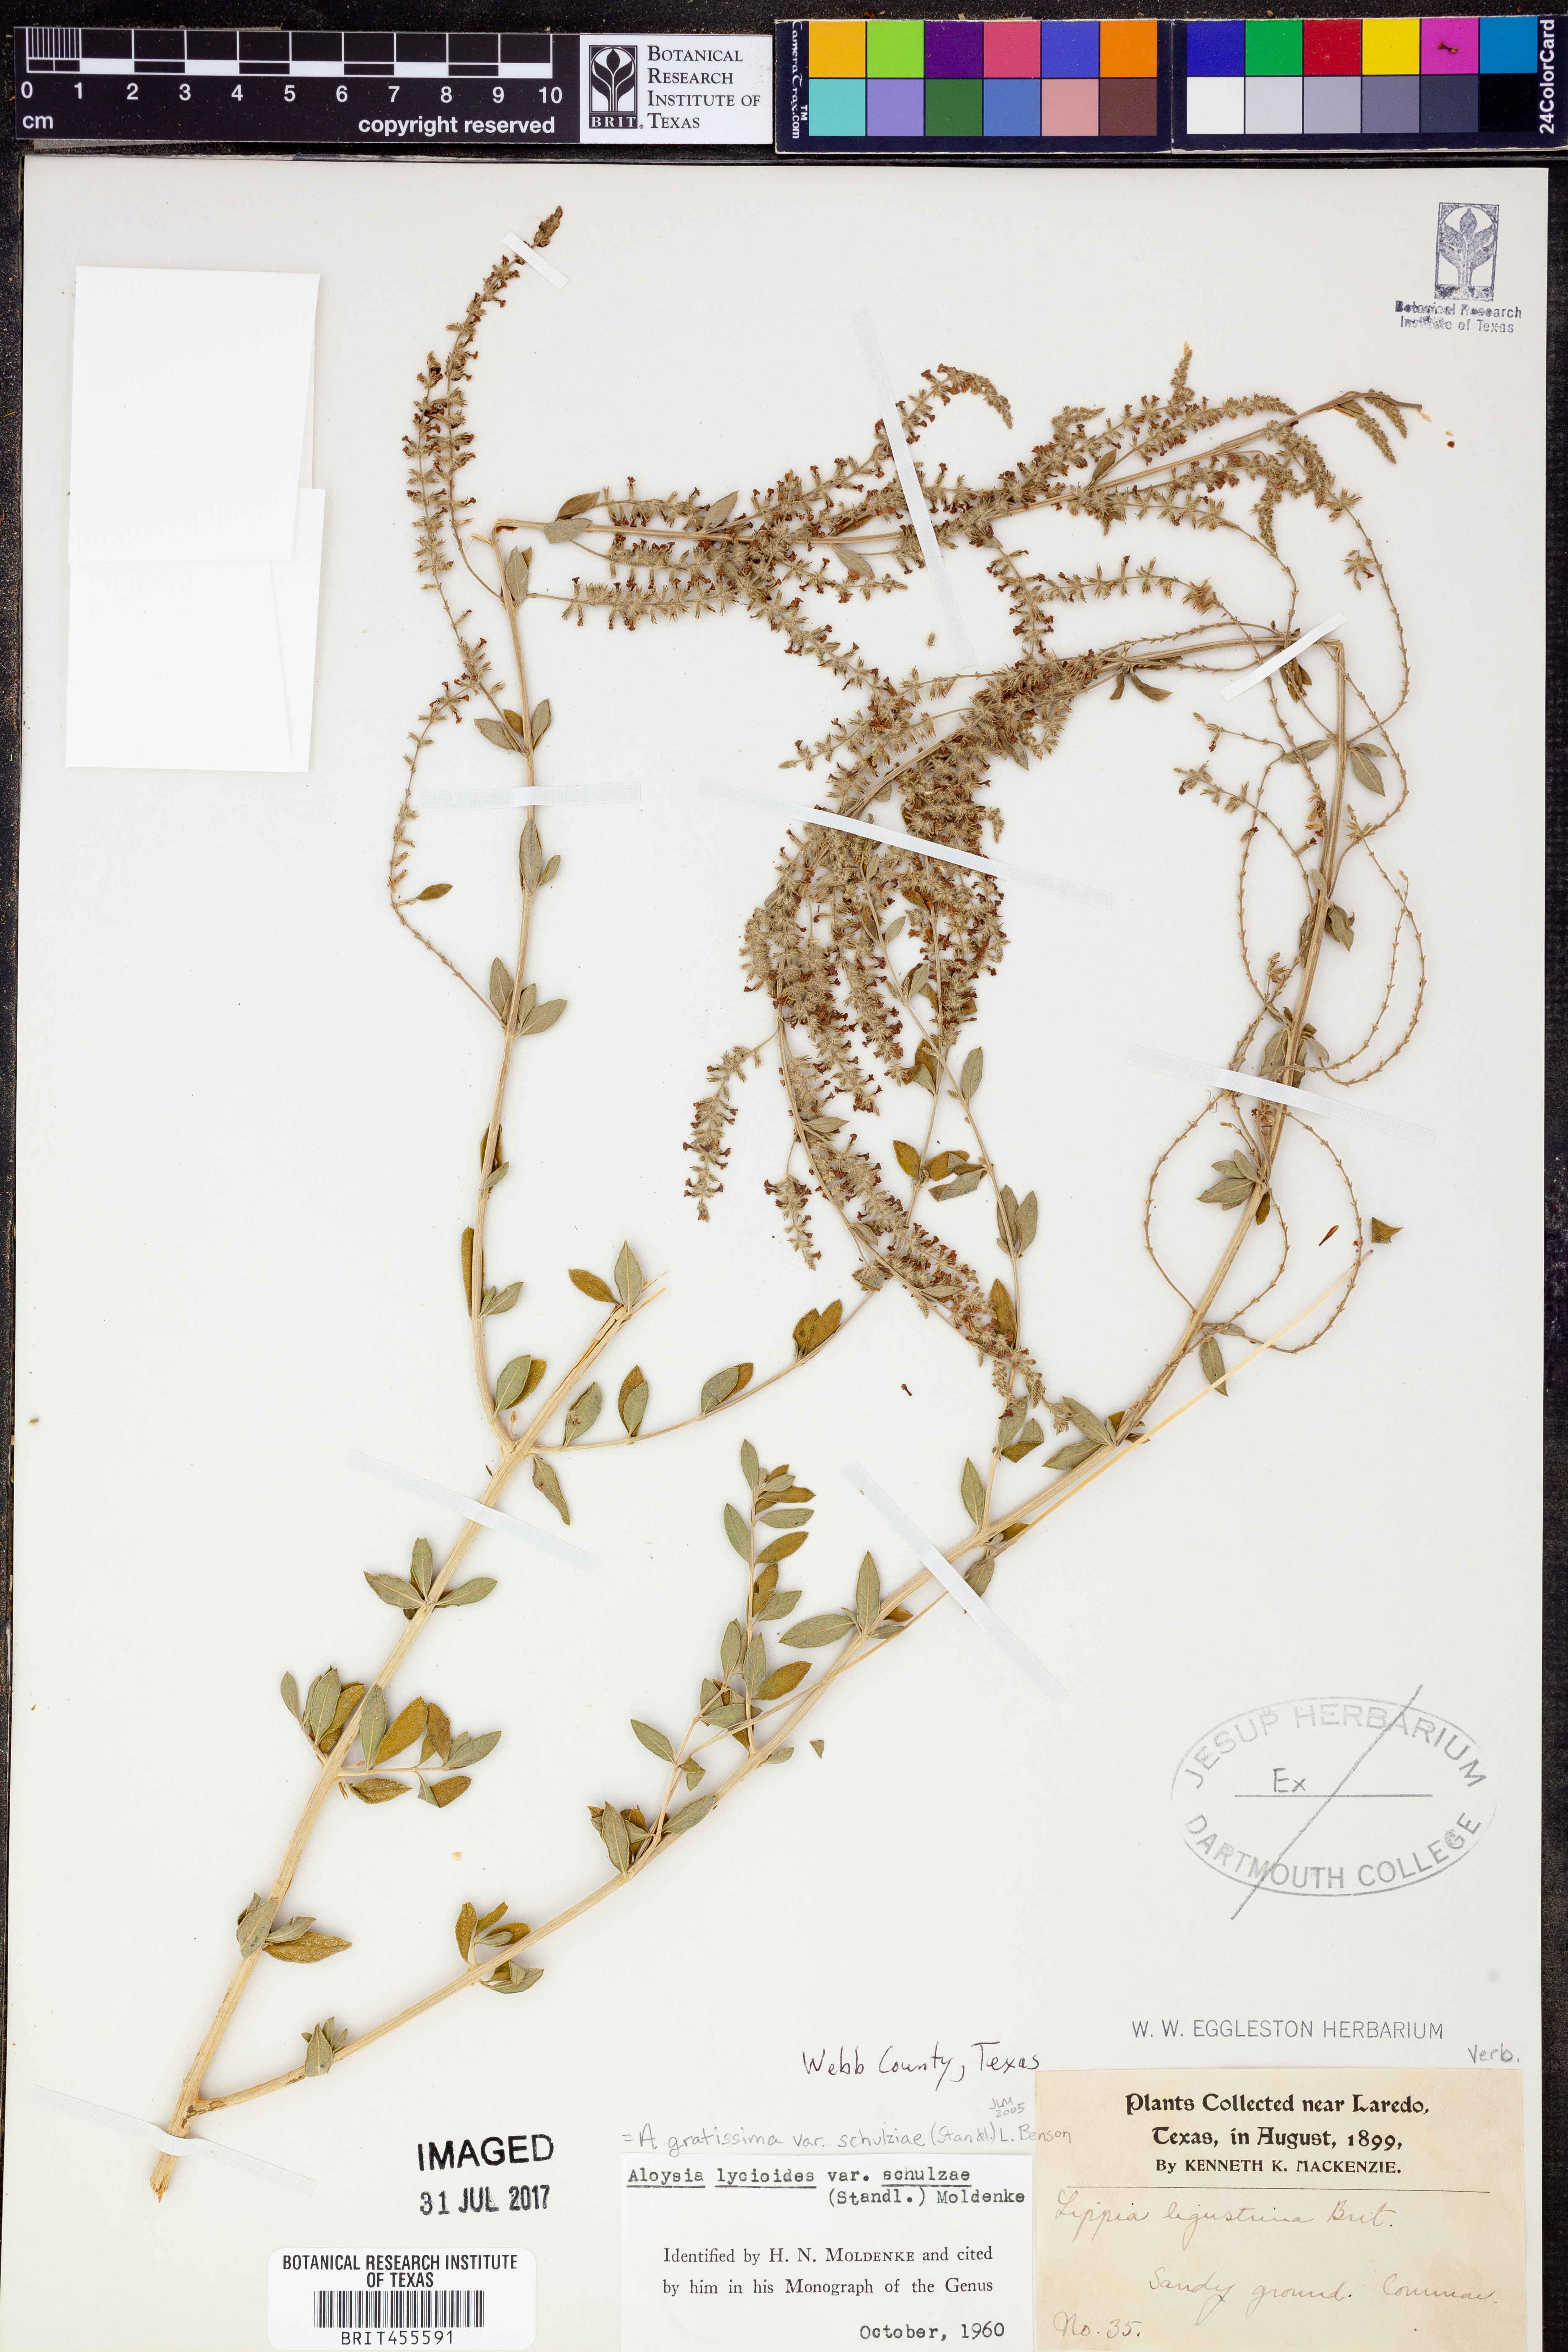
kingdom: Plantae
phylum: Tracheophyta
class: Magnoliopsida
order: Lamiales
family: Verbenaceae
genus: Aloysia
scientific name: Aloysia gratissima
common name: Common bee-brush
